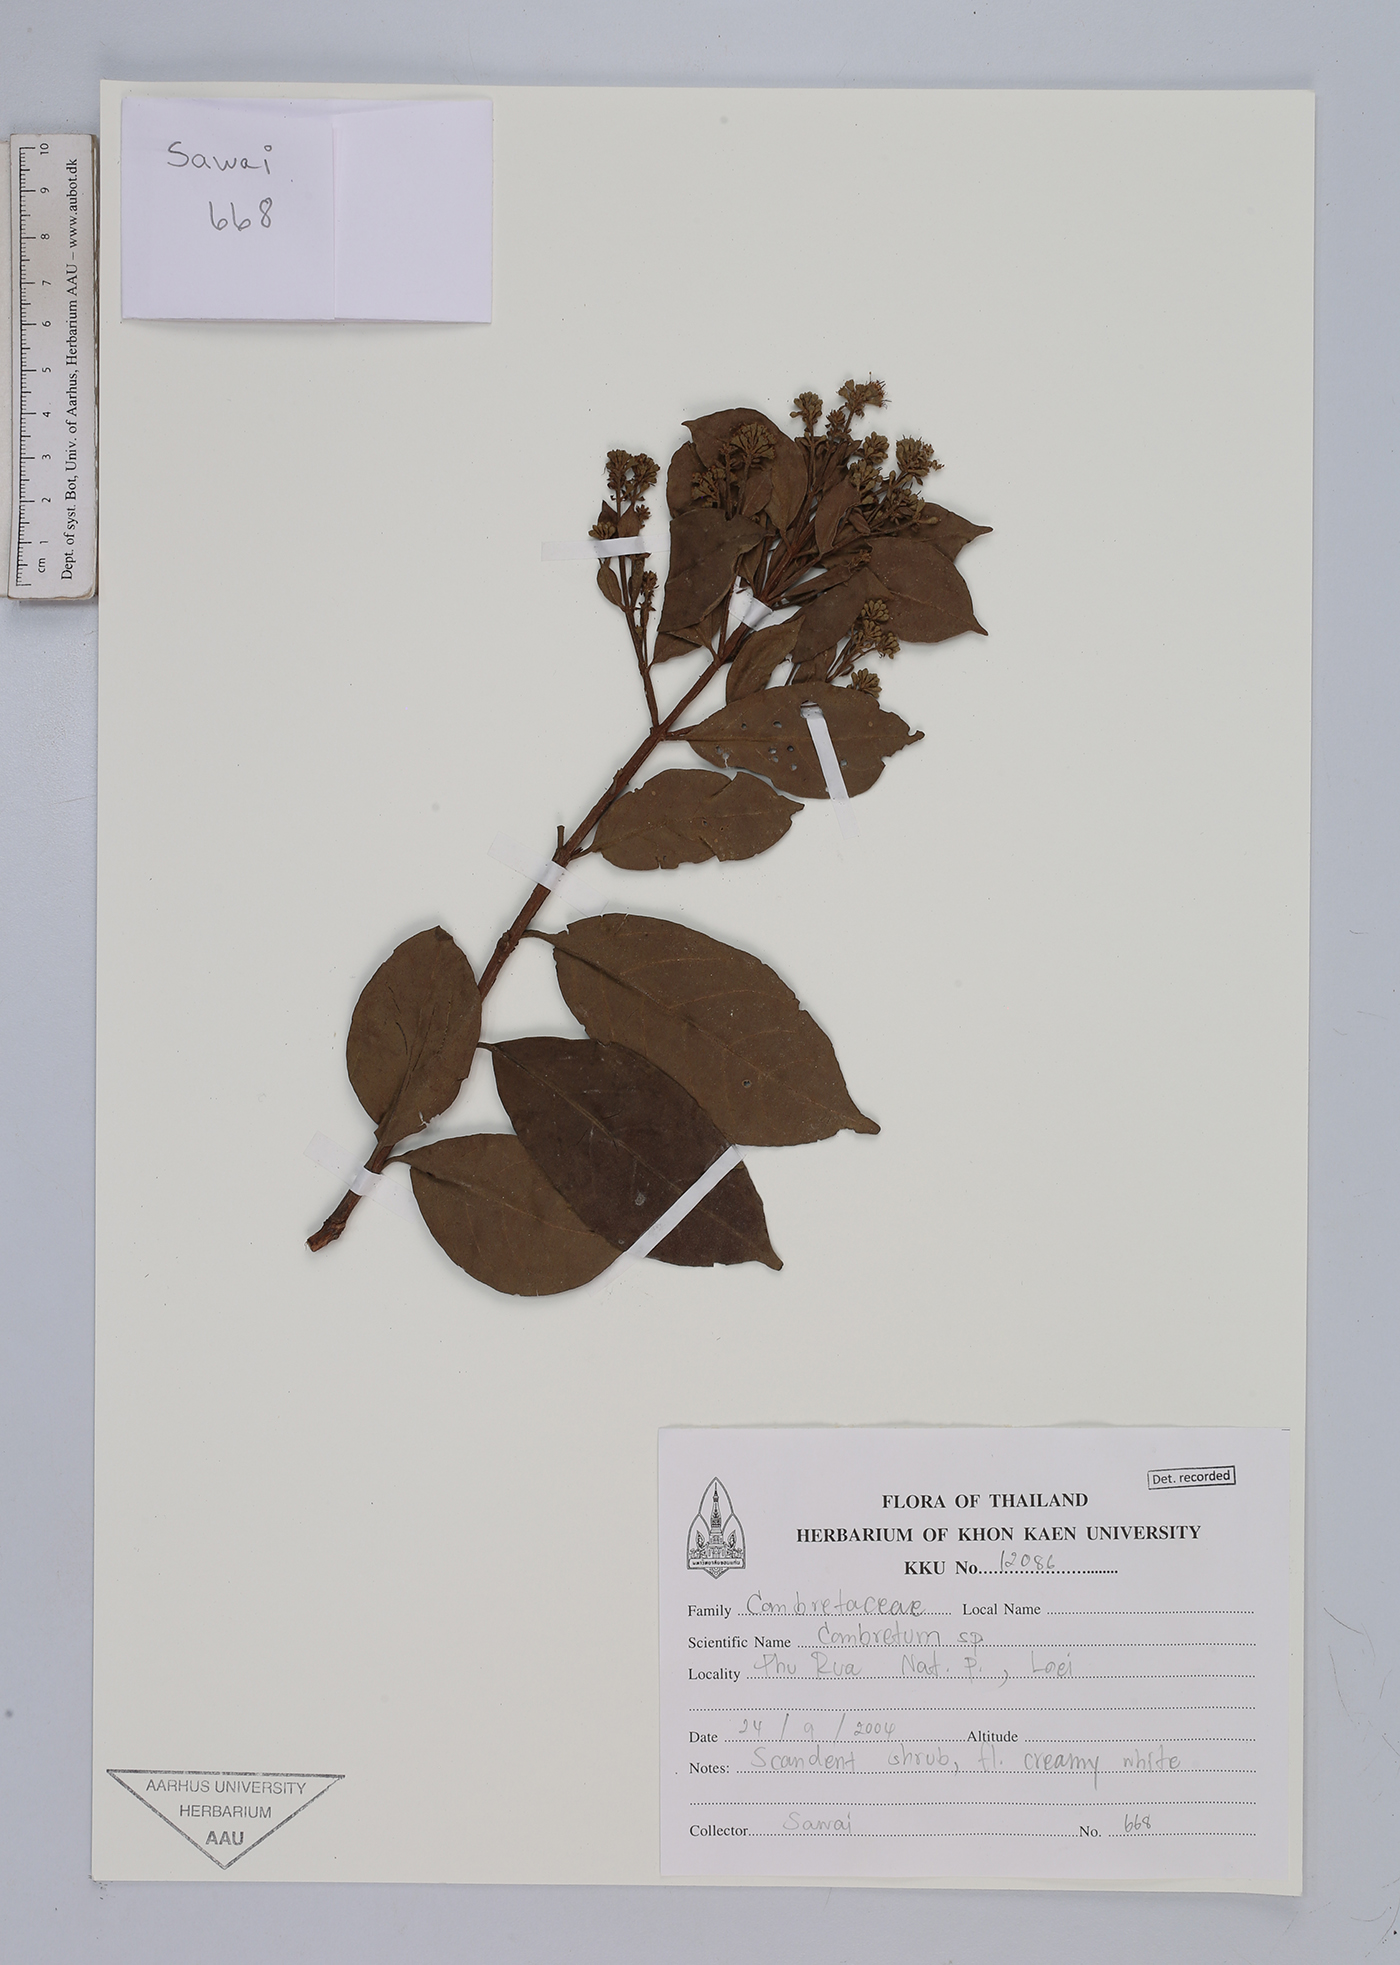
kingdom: Plantae
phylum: Tracheophyta
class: Magnoliopsida
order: Myrtales
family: Combretaceae
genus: Combretum
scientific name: Combretum latifolium
